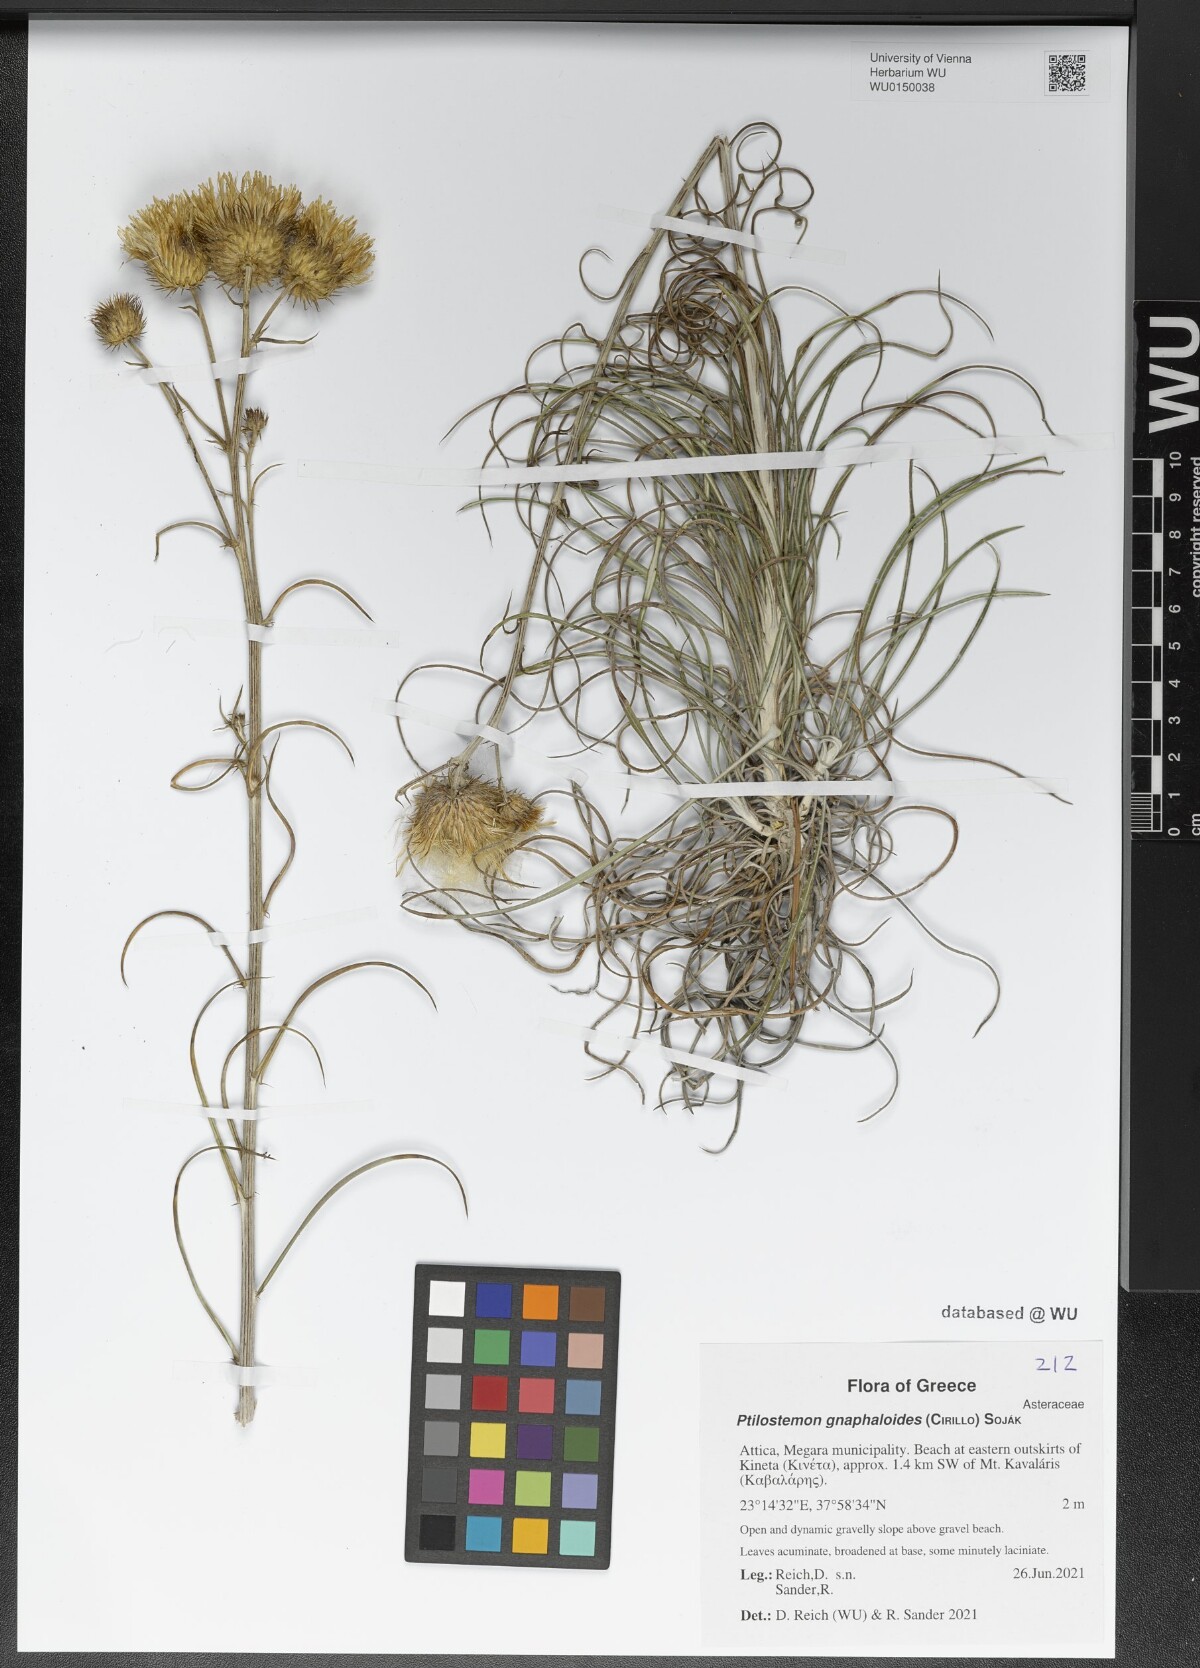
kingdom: Plantae
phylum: Tracheophyta
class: Magnoliopsida
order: Asterales
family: Asteraceae
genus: Ptilostemon
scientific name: Ptilostemon gnaphaloides
